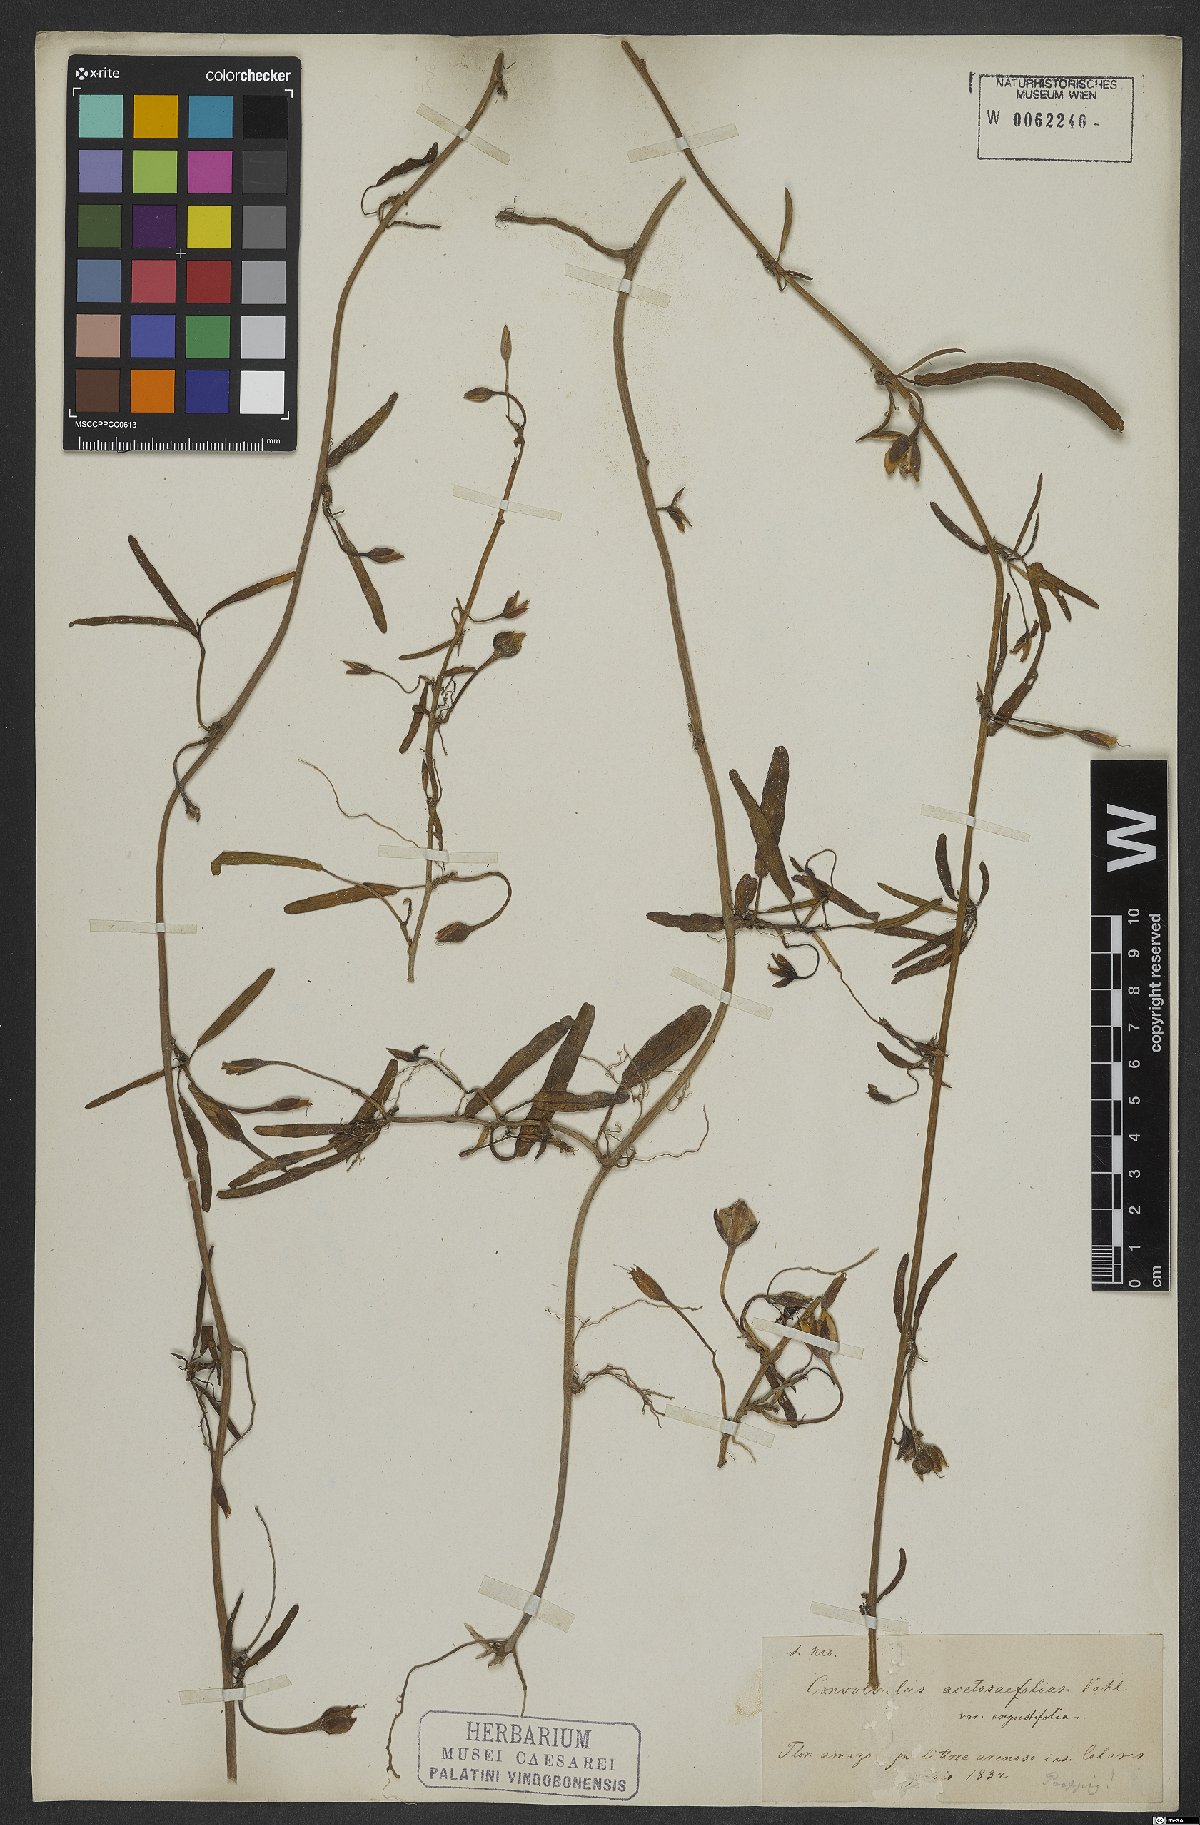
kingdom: Plantae
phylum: Tracheophyta
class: Magnoliopsida
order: Solanales
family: Convolvulaceae
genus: Ipomoea
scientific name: Ipomoea imperati
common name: Fiddle-leaf morning-glory
